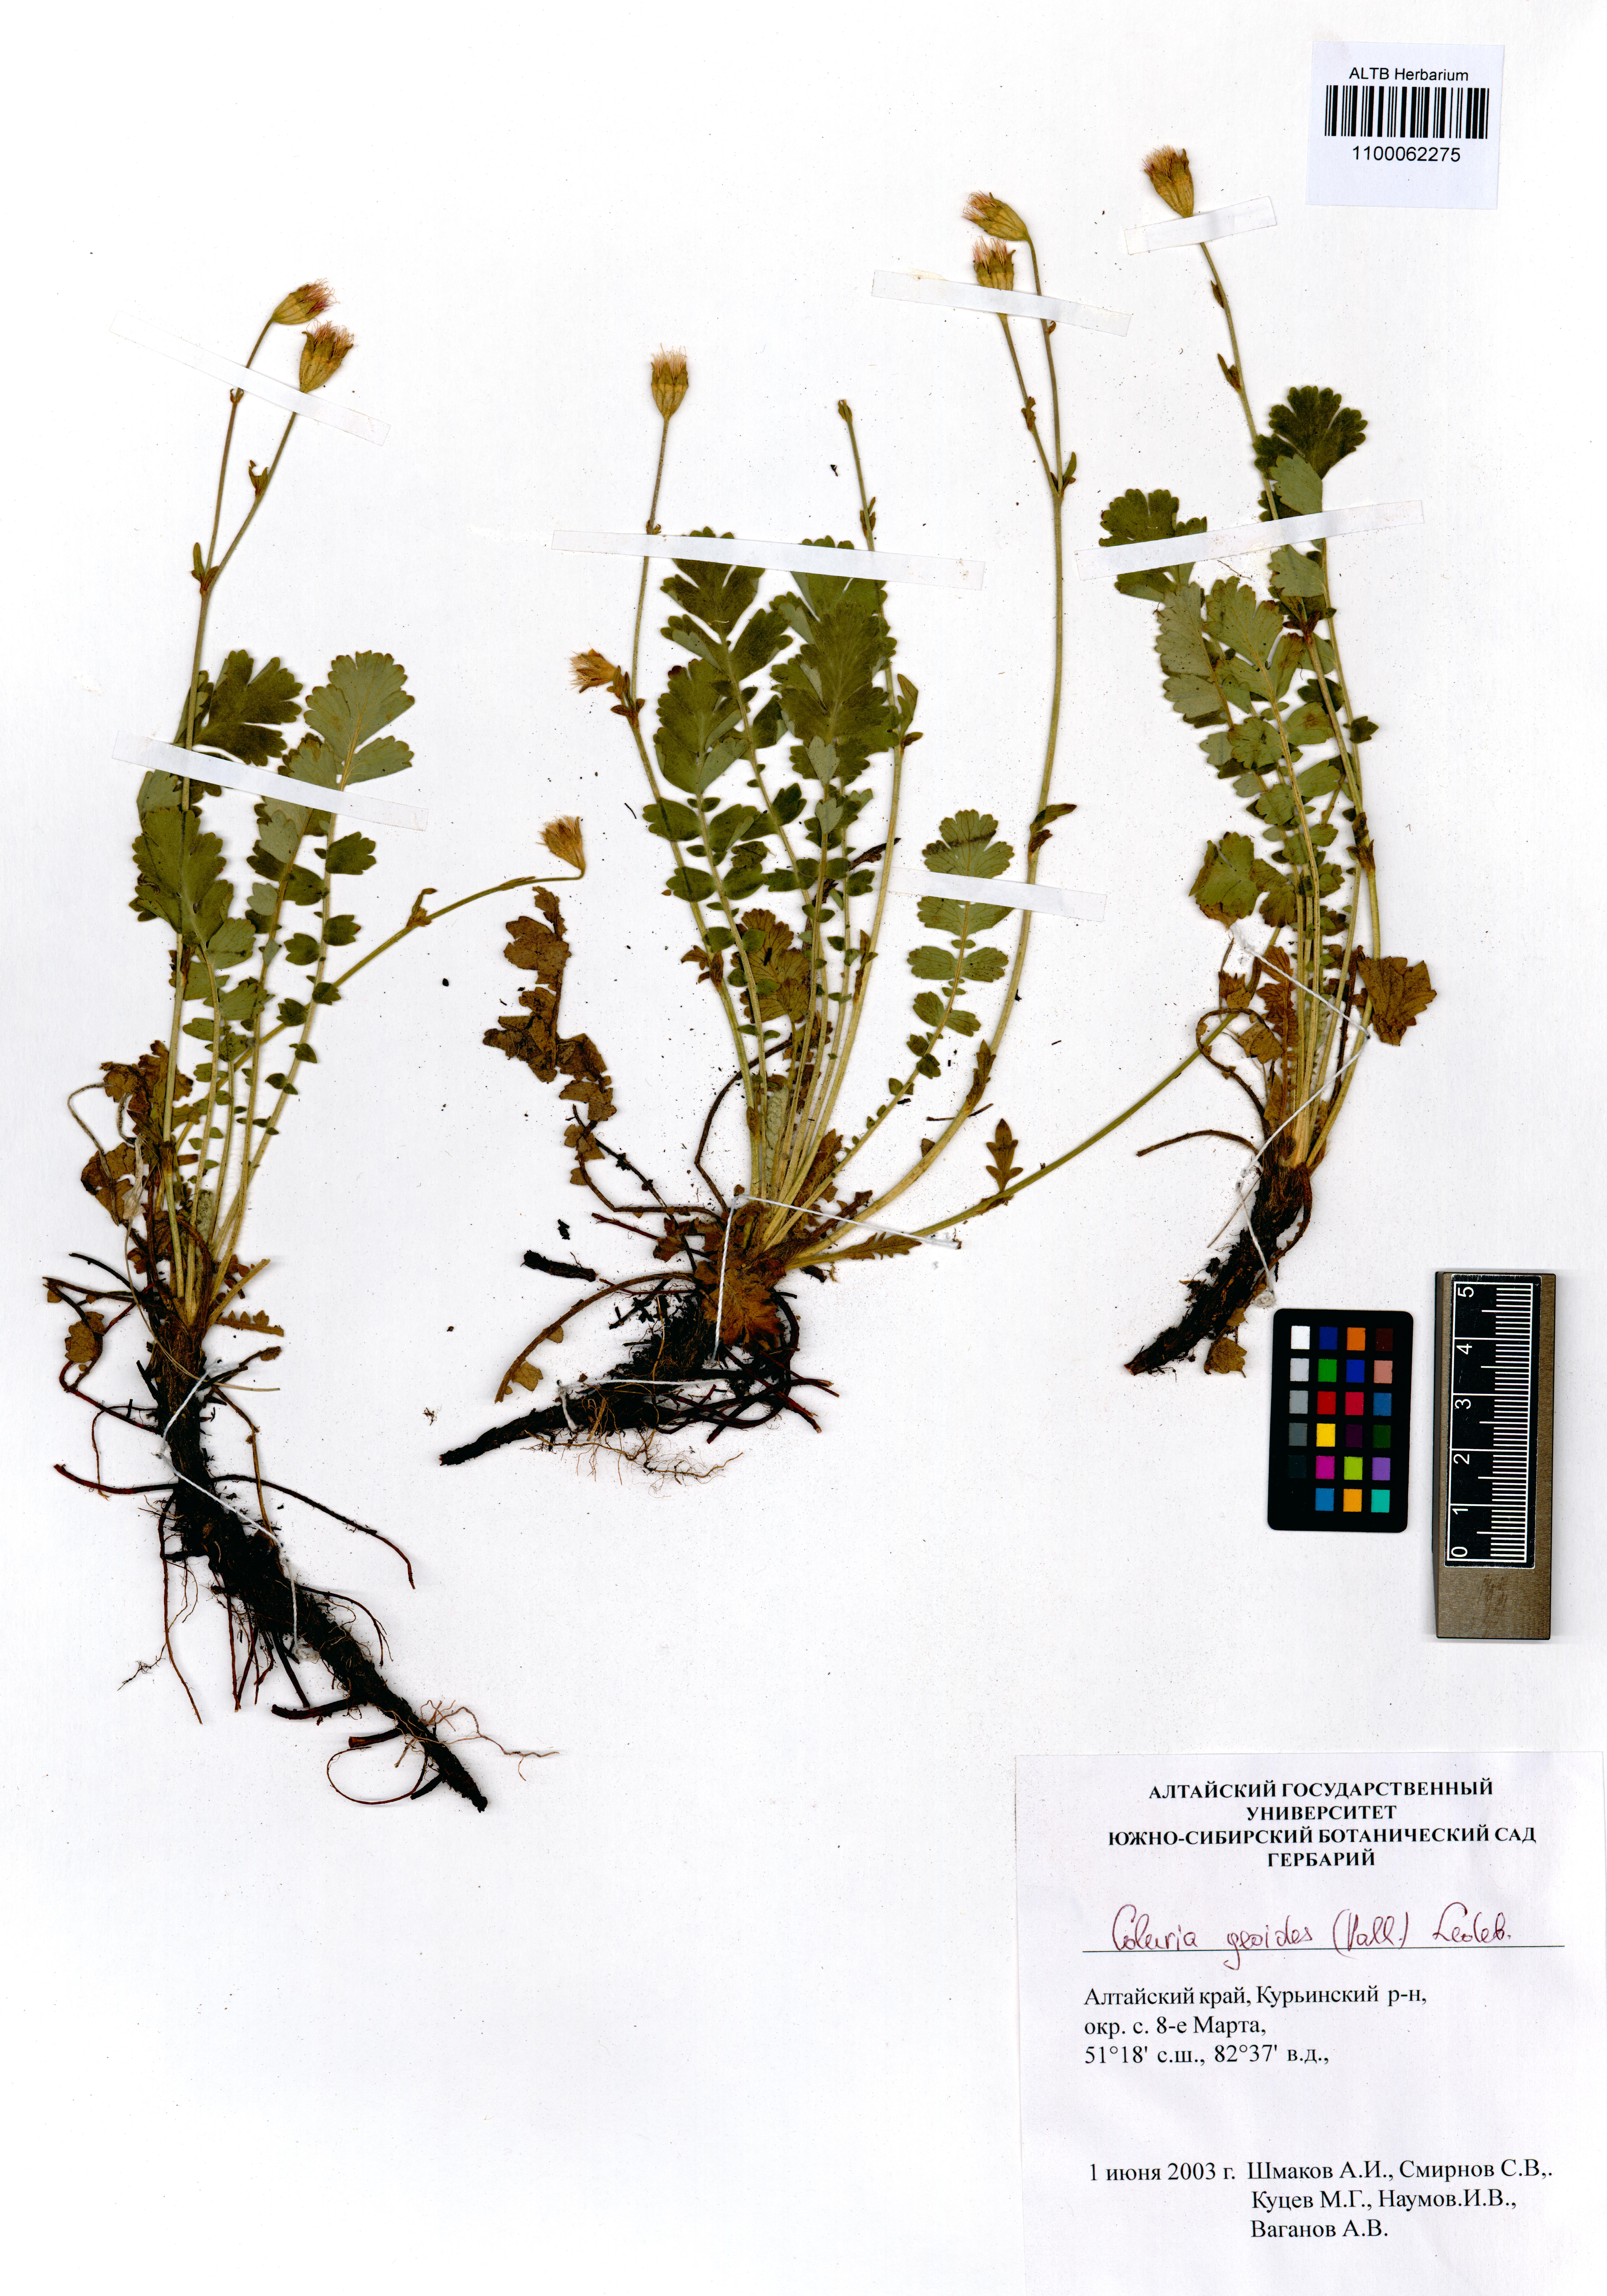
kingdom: Plantae
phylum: Tracheophyta
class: Magnoliopsida
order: Rosales
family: Rosaceae
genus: Geum
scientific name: Geum geoides
